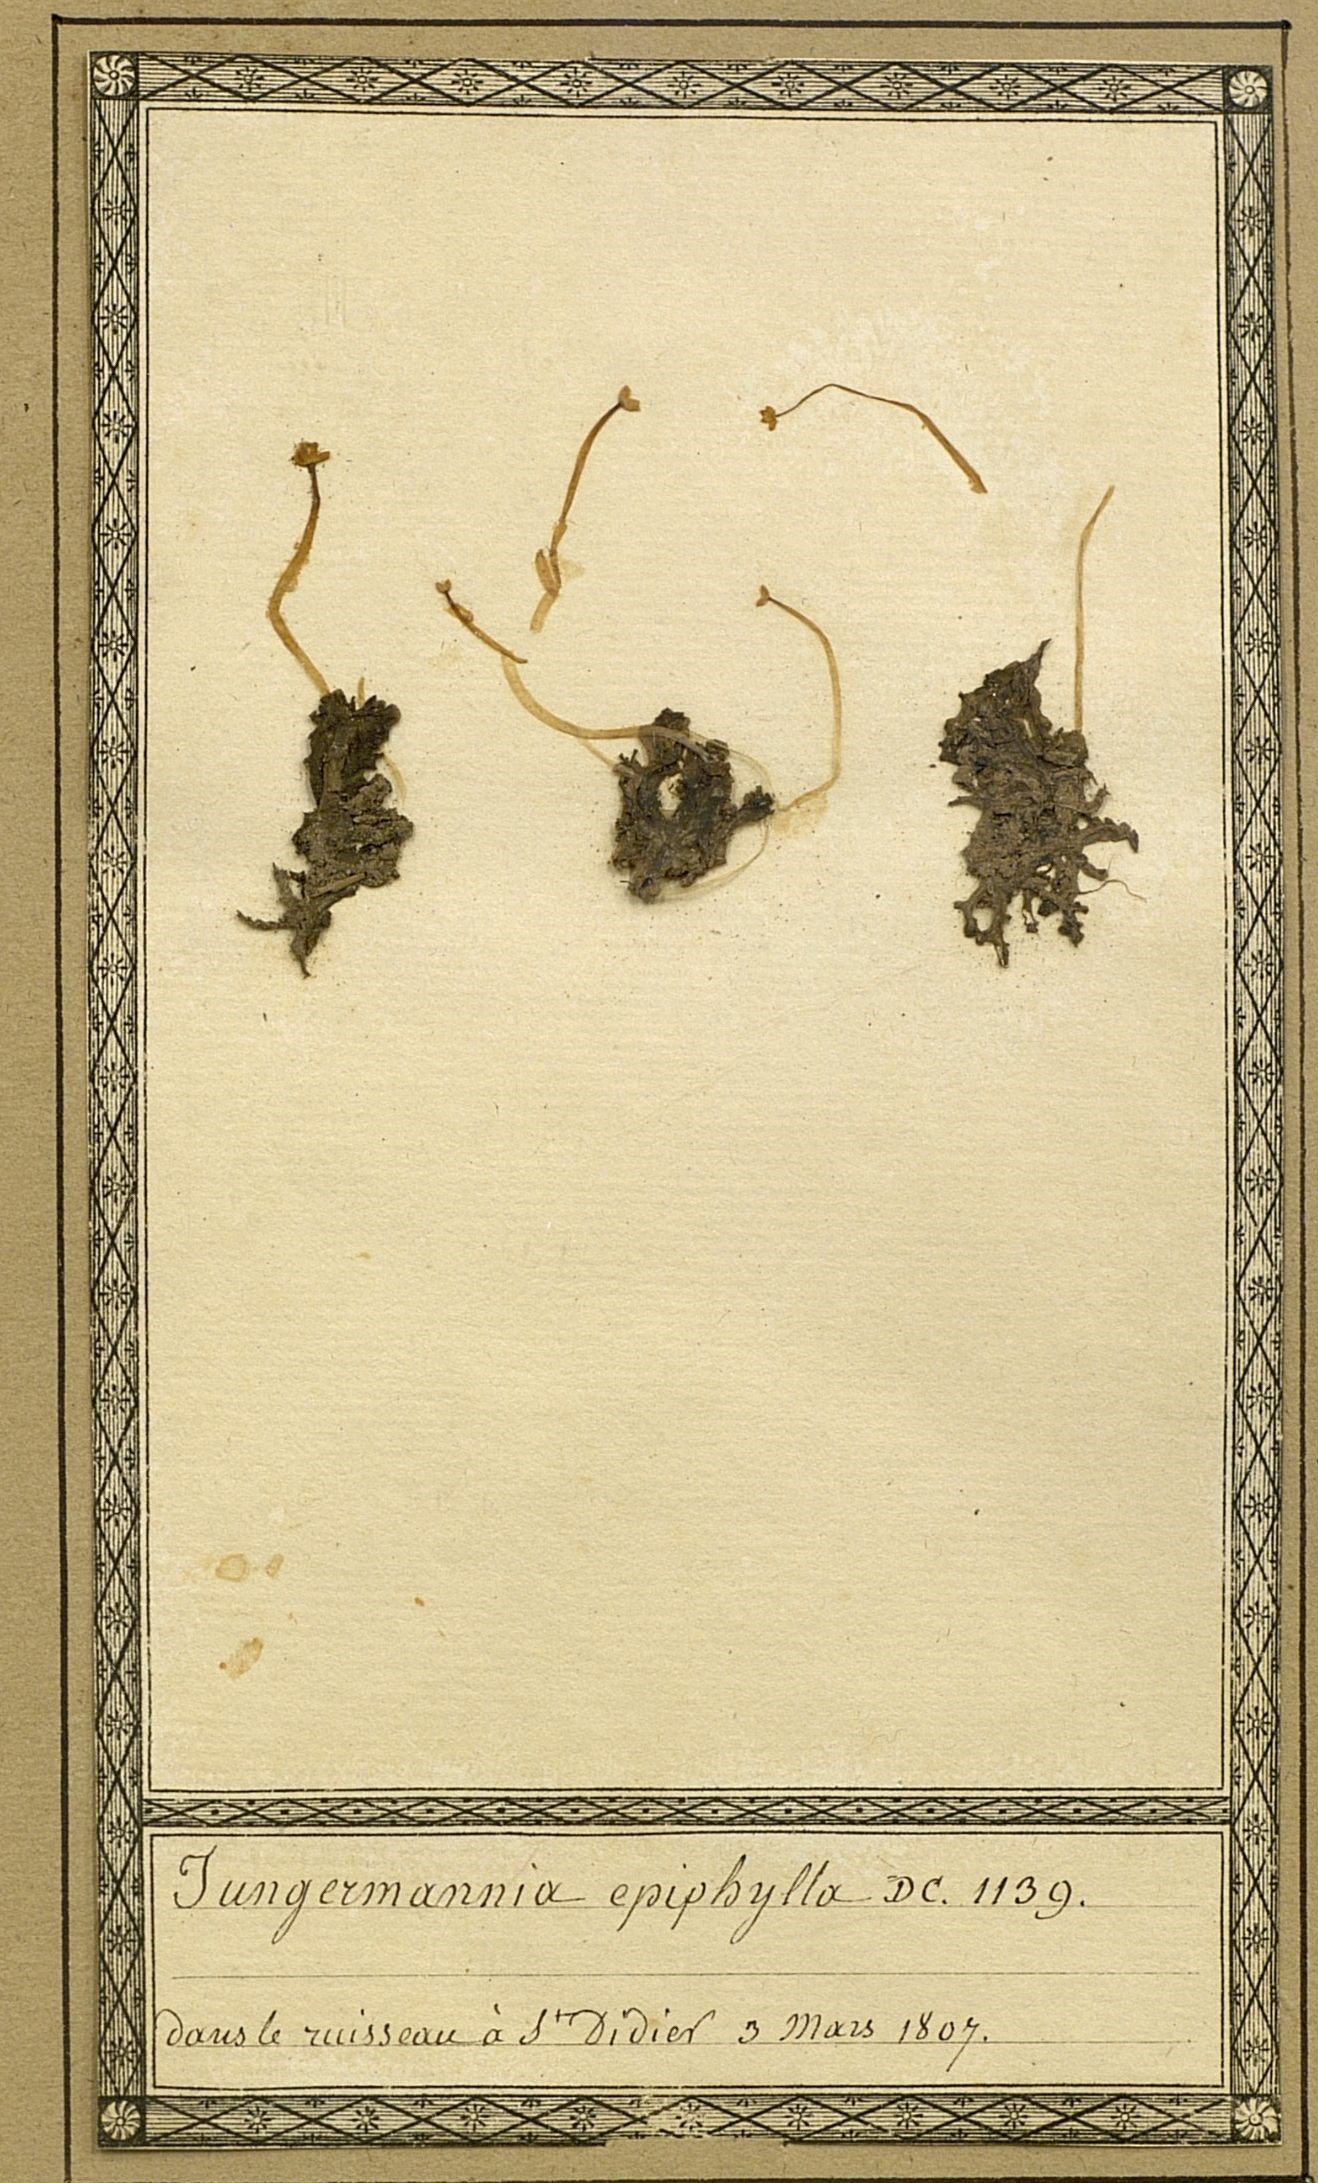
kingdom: Plantae
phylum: Marchantiophyta
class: Jungermanniopsida
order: Pelliales
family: Pelliaceae
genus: Pellia
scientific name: Pellia epiphylla
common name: Common pellia
